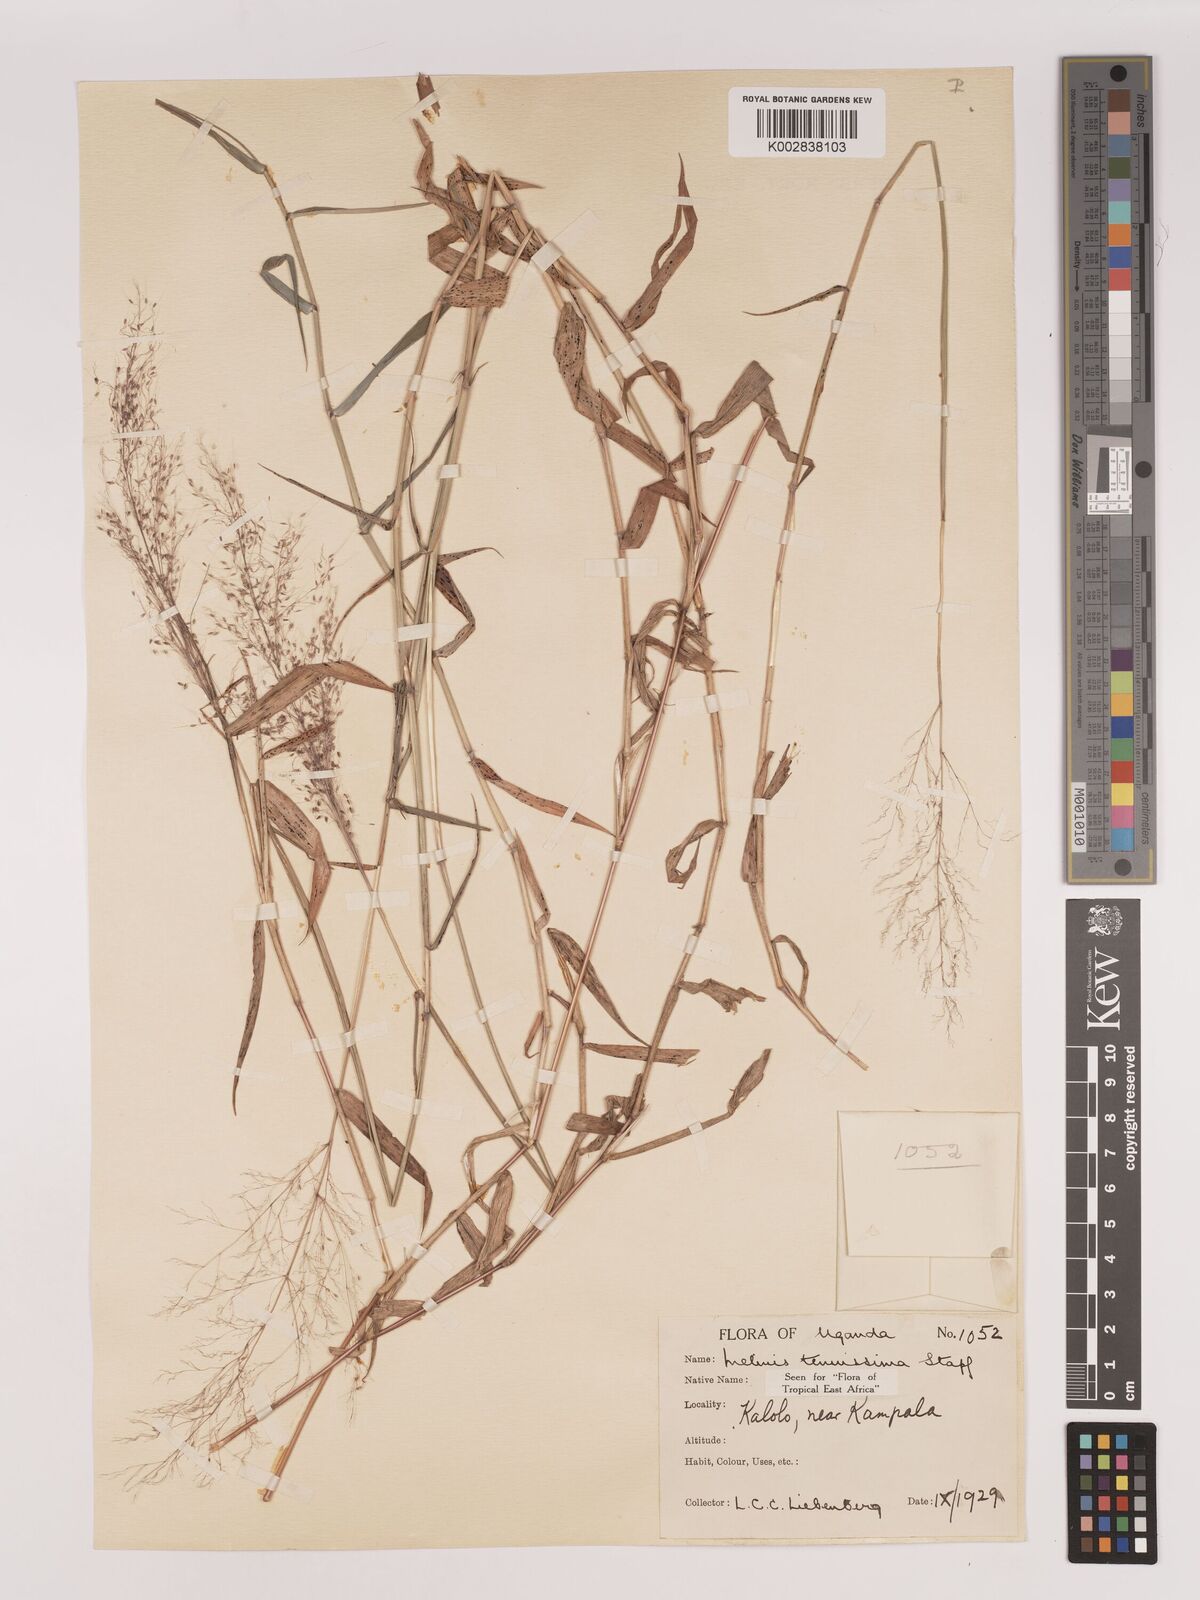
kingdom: Plantae
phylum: Tracheophyta
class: Liliopsida
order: Poales
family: Poaceae
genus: Melinis
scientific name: Melinis tenuissima
